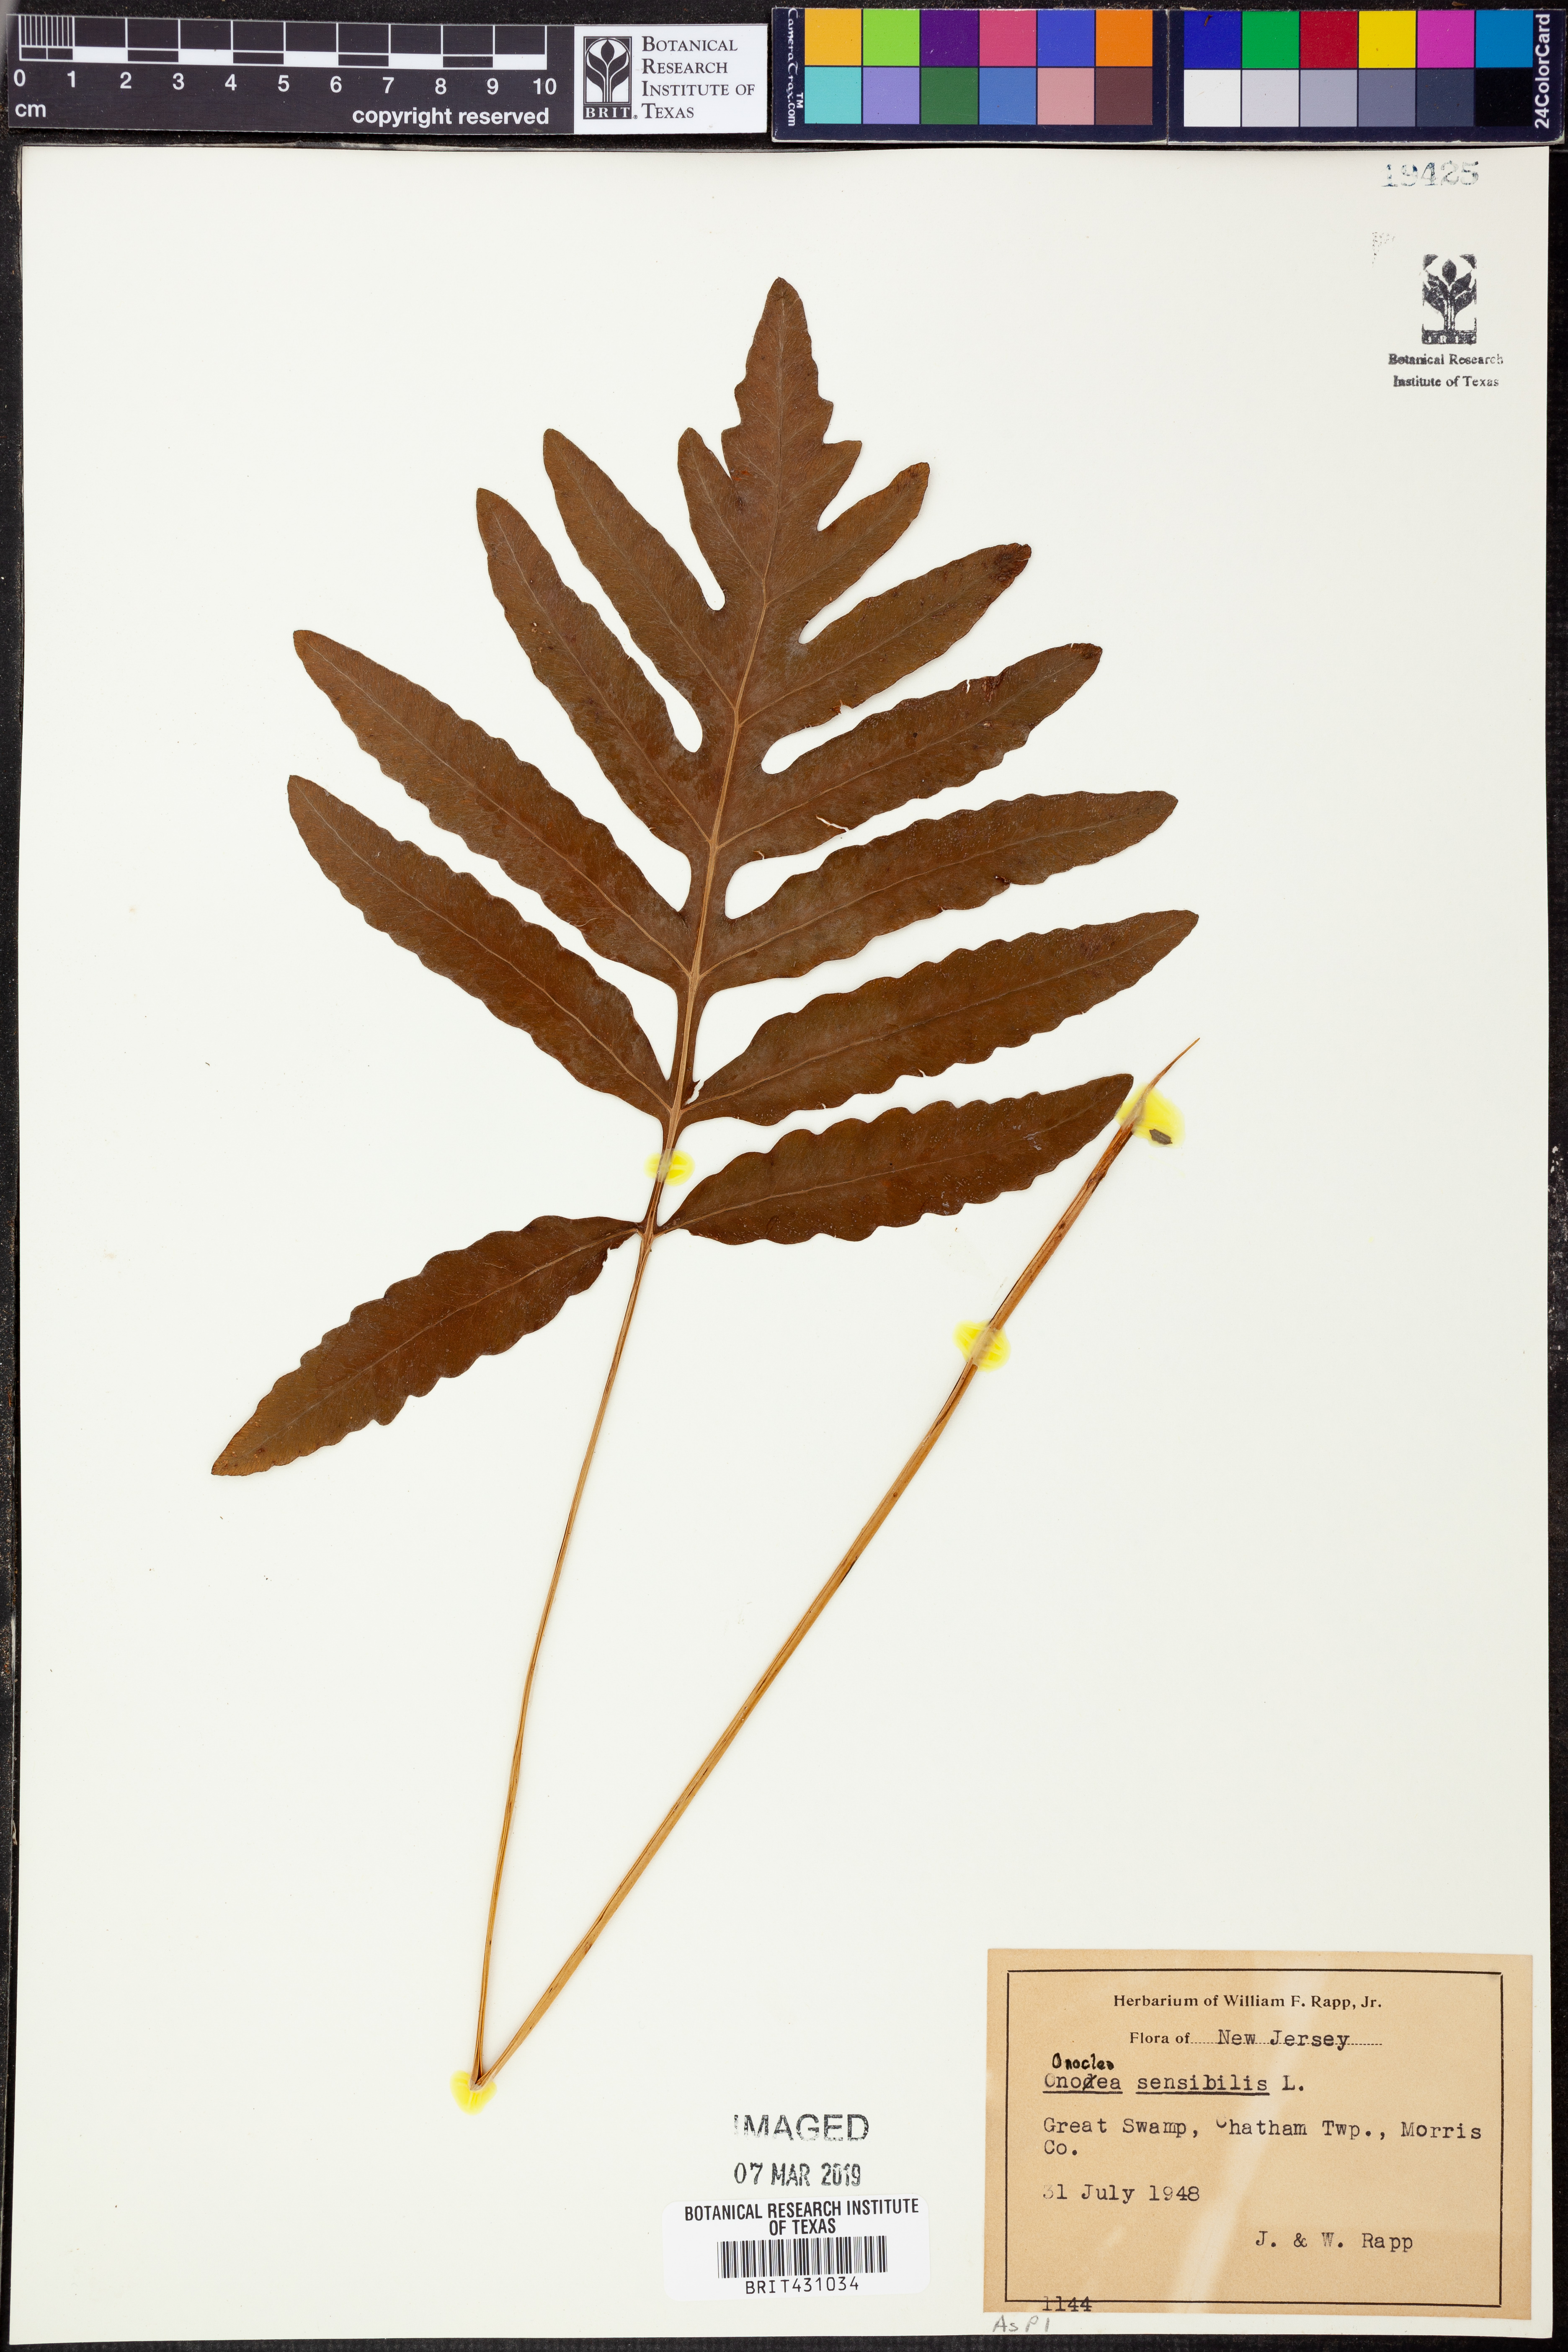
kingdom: Plantae
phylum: Tracheophyta
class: Polypodiopsida
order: Polypodiales
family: Onocleaceae
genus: Onoclea
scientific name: Onoclea sensibilis
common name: Sensitive fern
